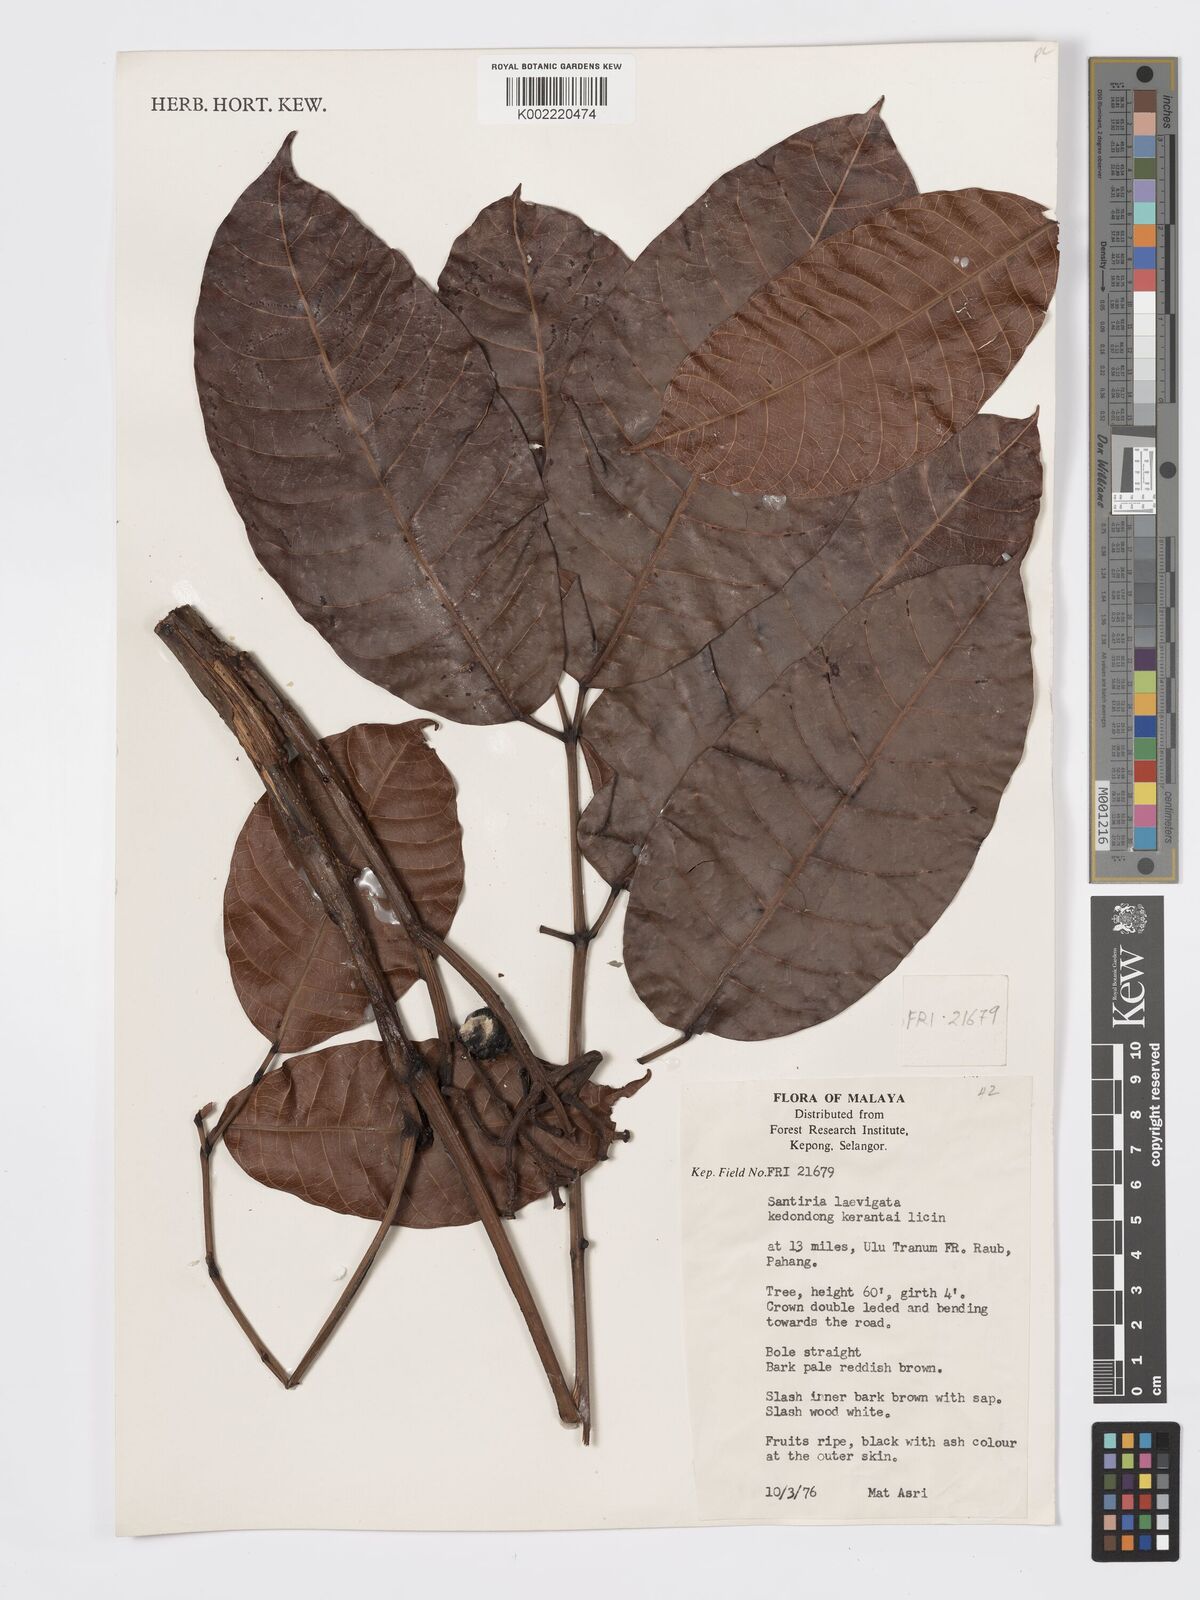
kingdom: Plantae
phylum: Tracheophyta
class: Magnoliopsida
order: Sapindales
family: Burseraceae
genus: Santiria
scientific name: Santiria laevigata
